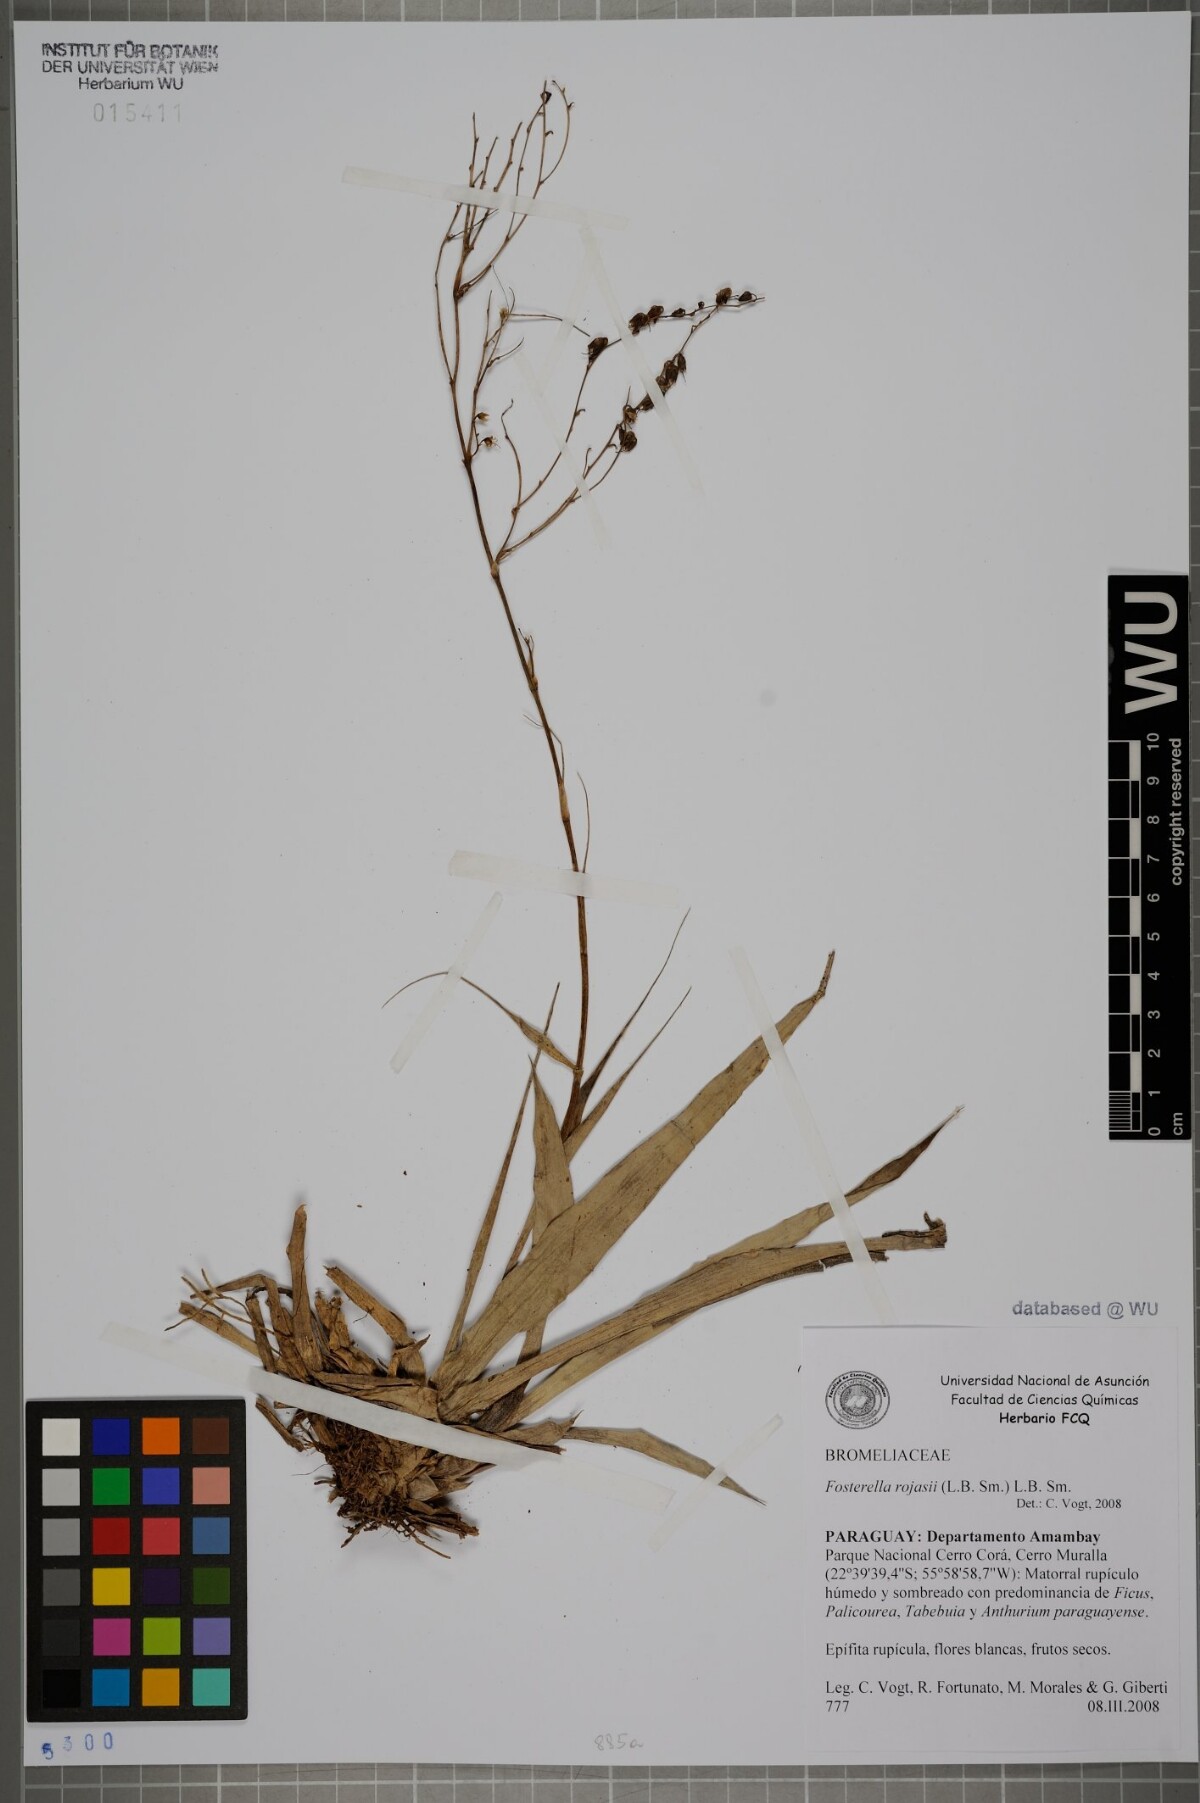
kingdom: Plantae
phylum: Tracheophyta
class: Liliopsida
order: Poales
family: Bromeliaceae
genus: Fosterella
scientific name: Fosterella rojasii
